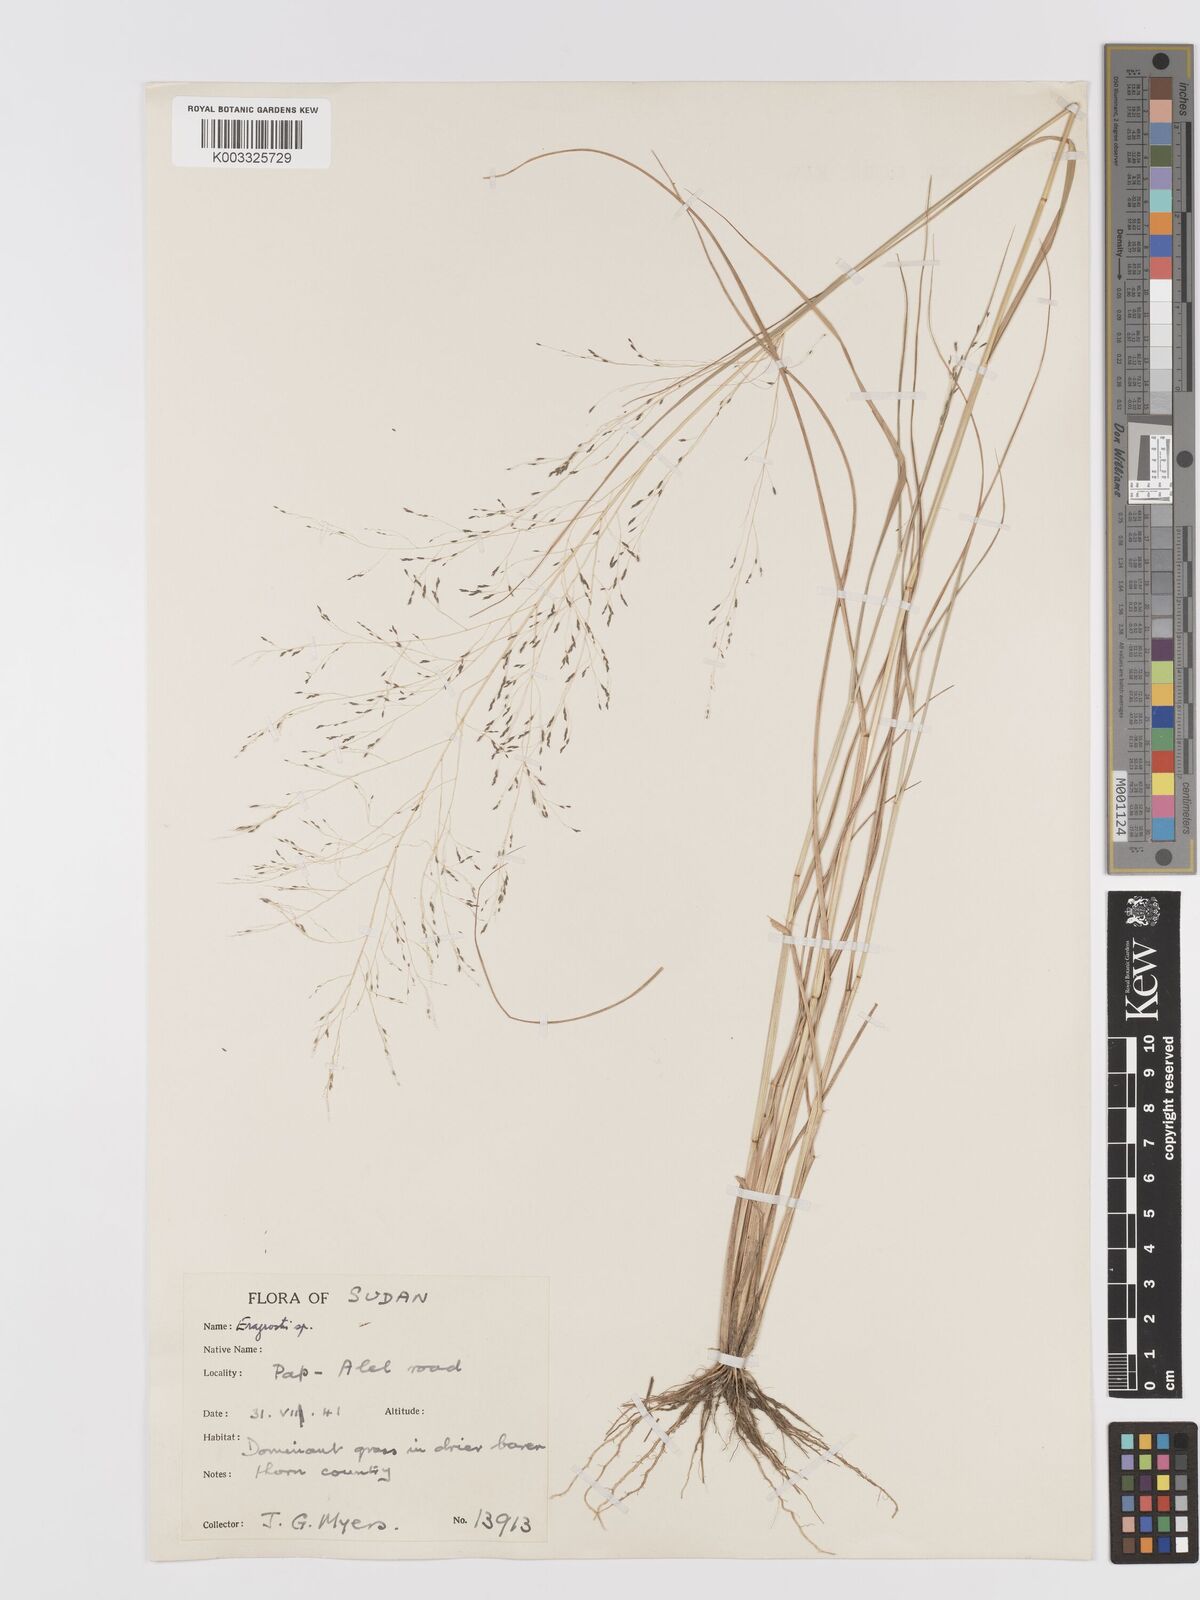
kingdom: Plantae
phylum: Tracheophyta
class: Liliopsida
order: Poales
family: Poaceae
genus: Eragrostis
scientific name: Eragrostis pilosa
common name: Indian lovegrass
